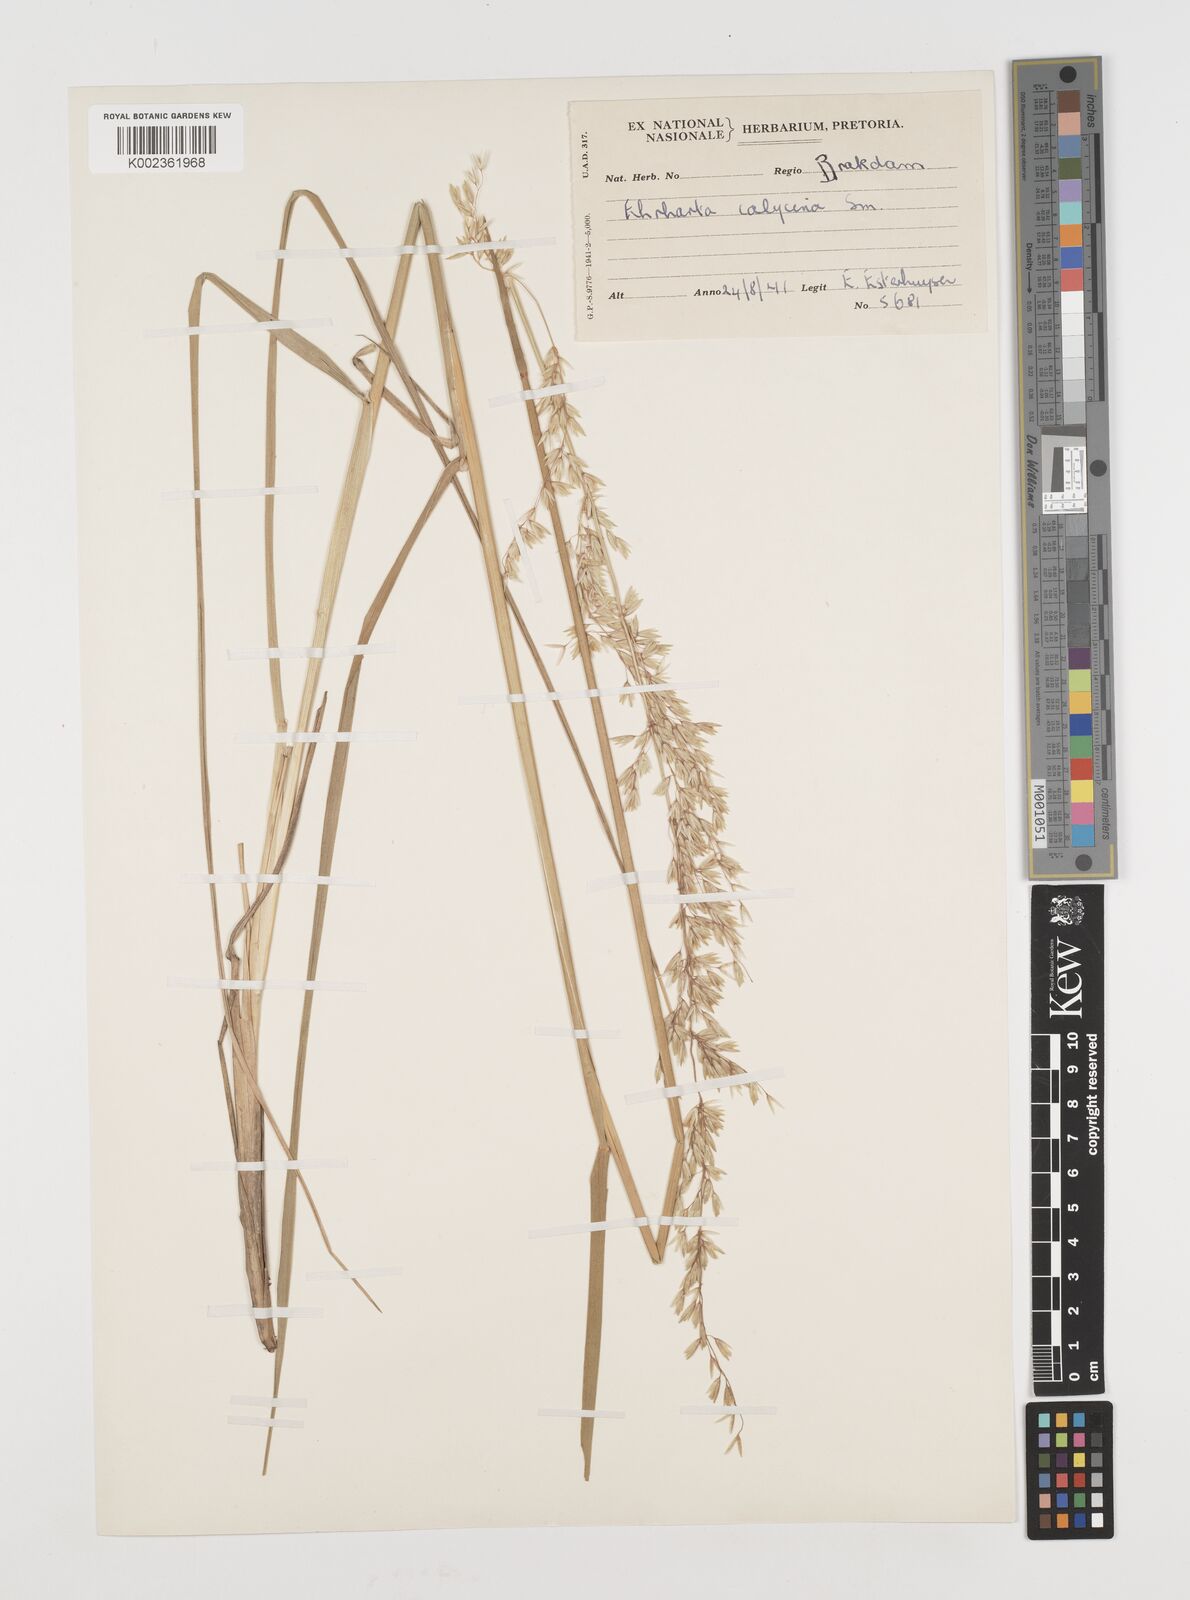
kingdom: Plantae
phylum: Tracheophyta
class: Liliopsida
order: Poales
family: Poaceae
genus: Ehrharta
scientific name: Ehrharta calycina
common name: Perennial veldtgrass
